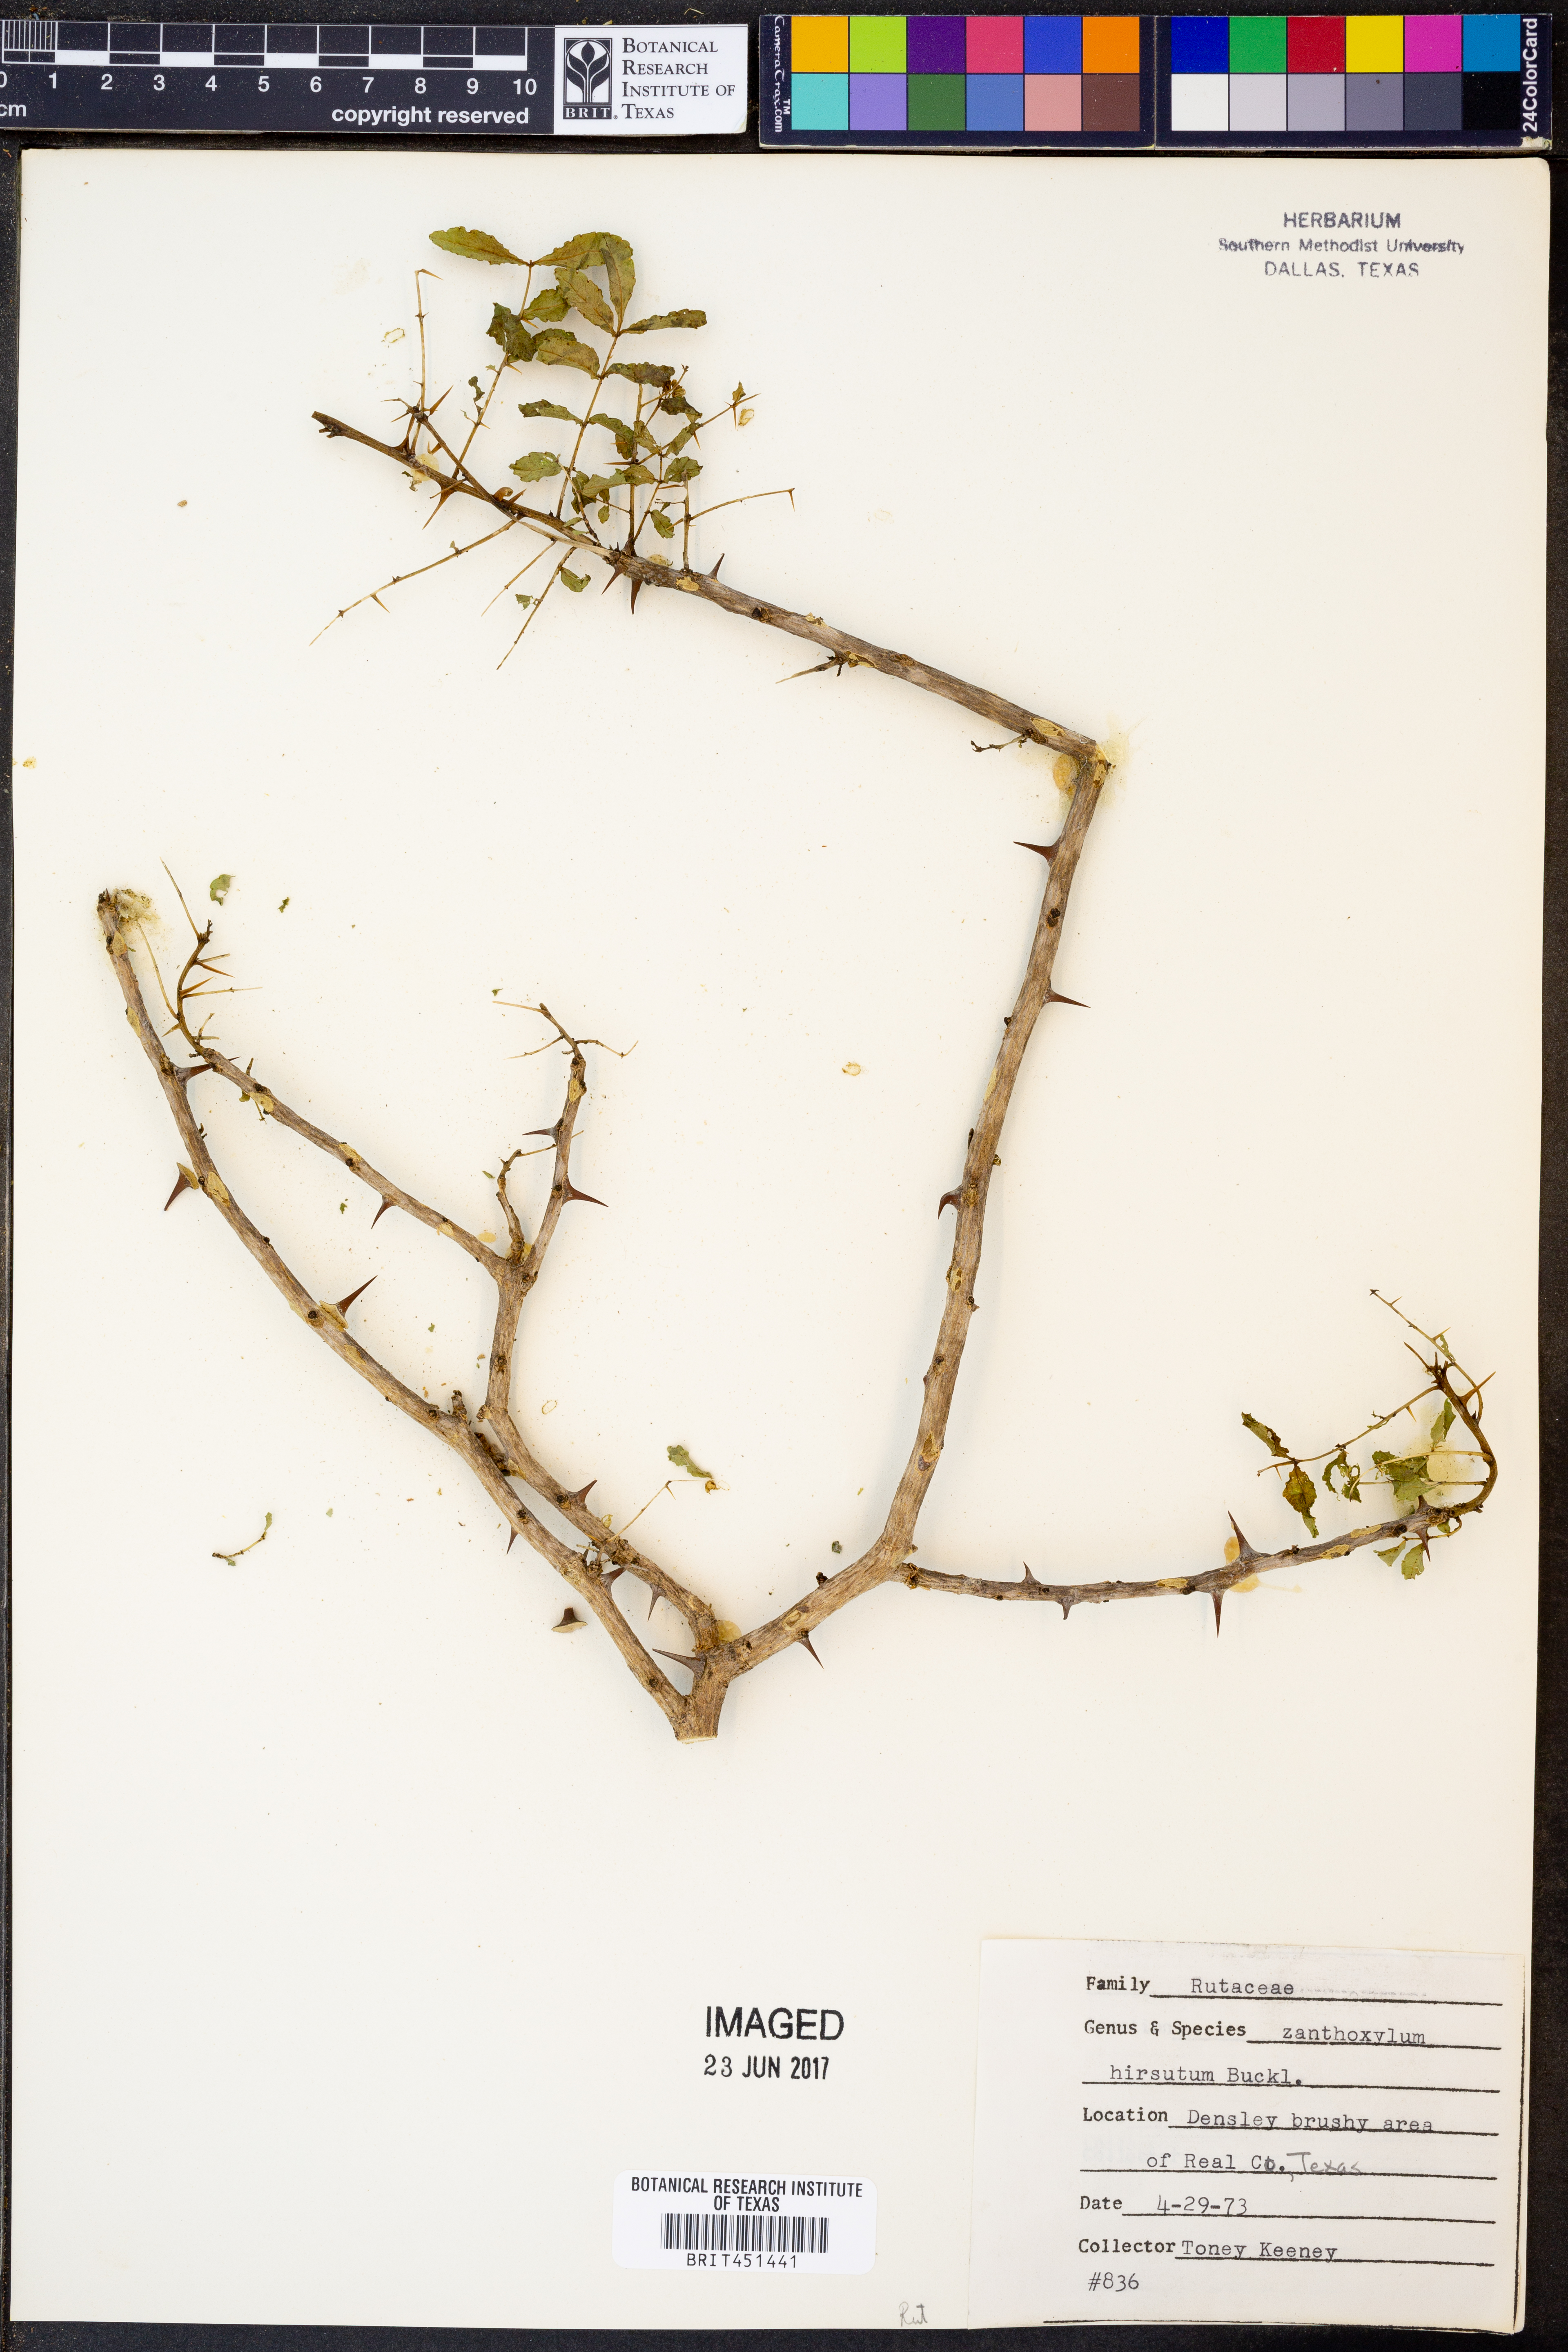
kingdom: Plantae
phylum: Tracheophyta
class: Magnoliopsida
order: Sapindales
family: Rutaceae
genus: Zanthoxylum
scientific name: Zanthoxylum clava-herculis
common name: Hercules'-club
